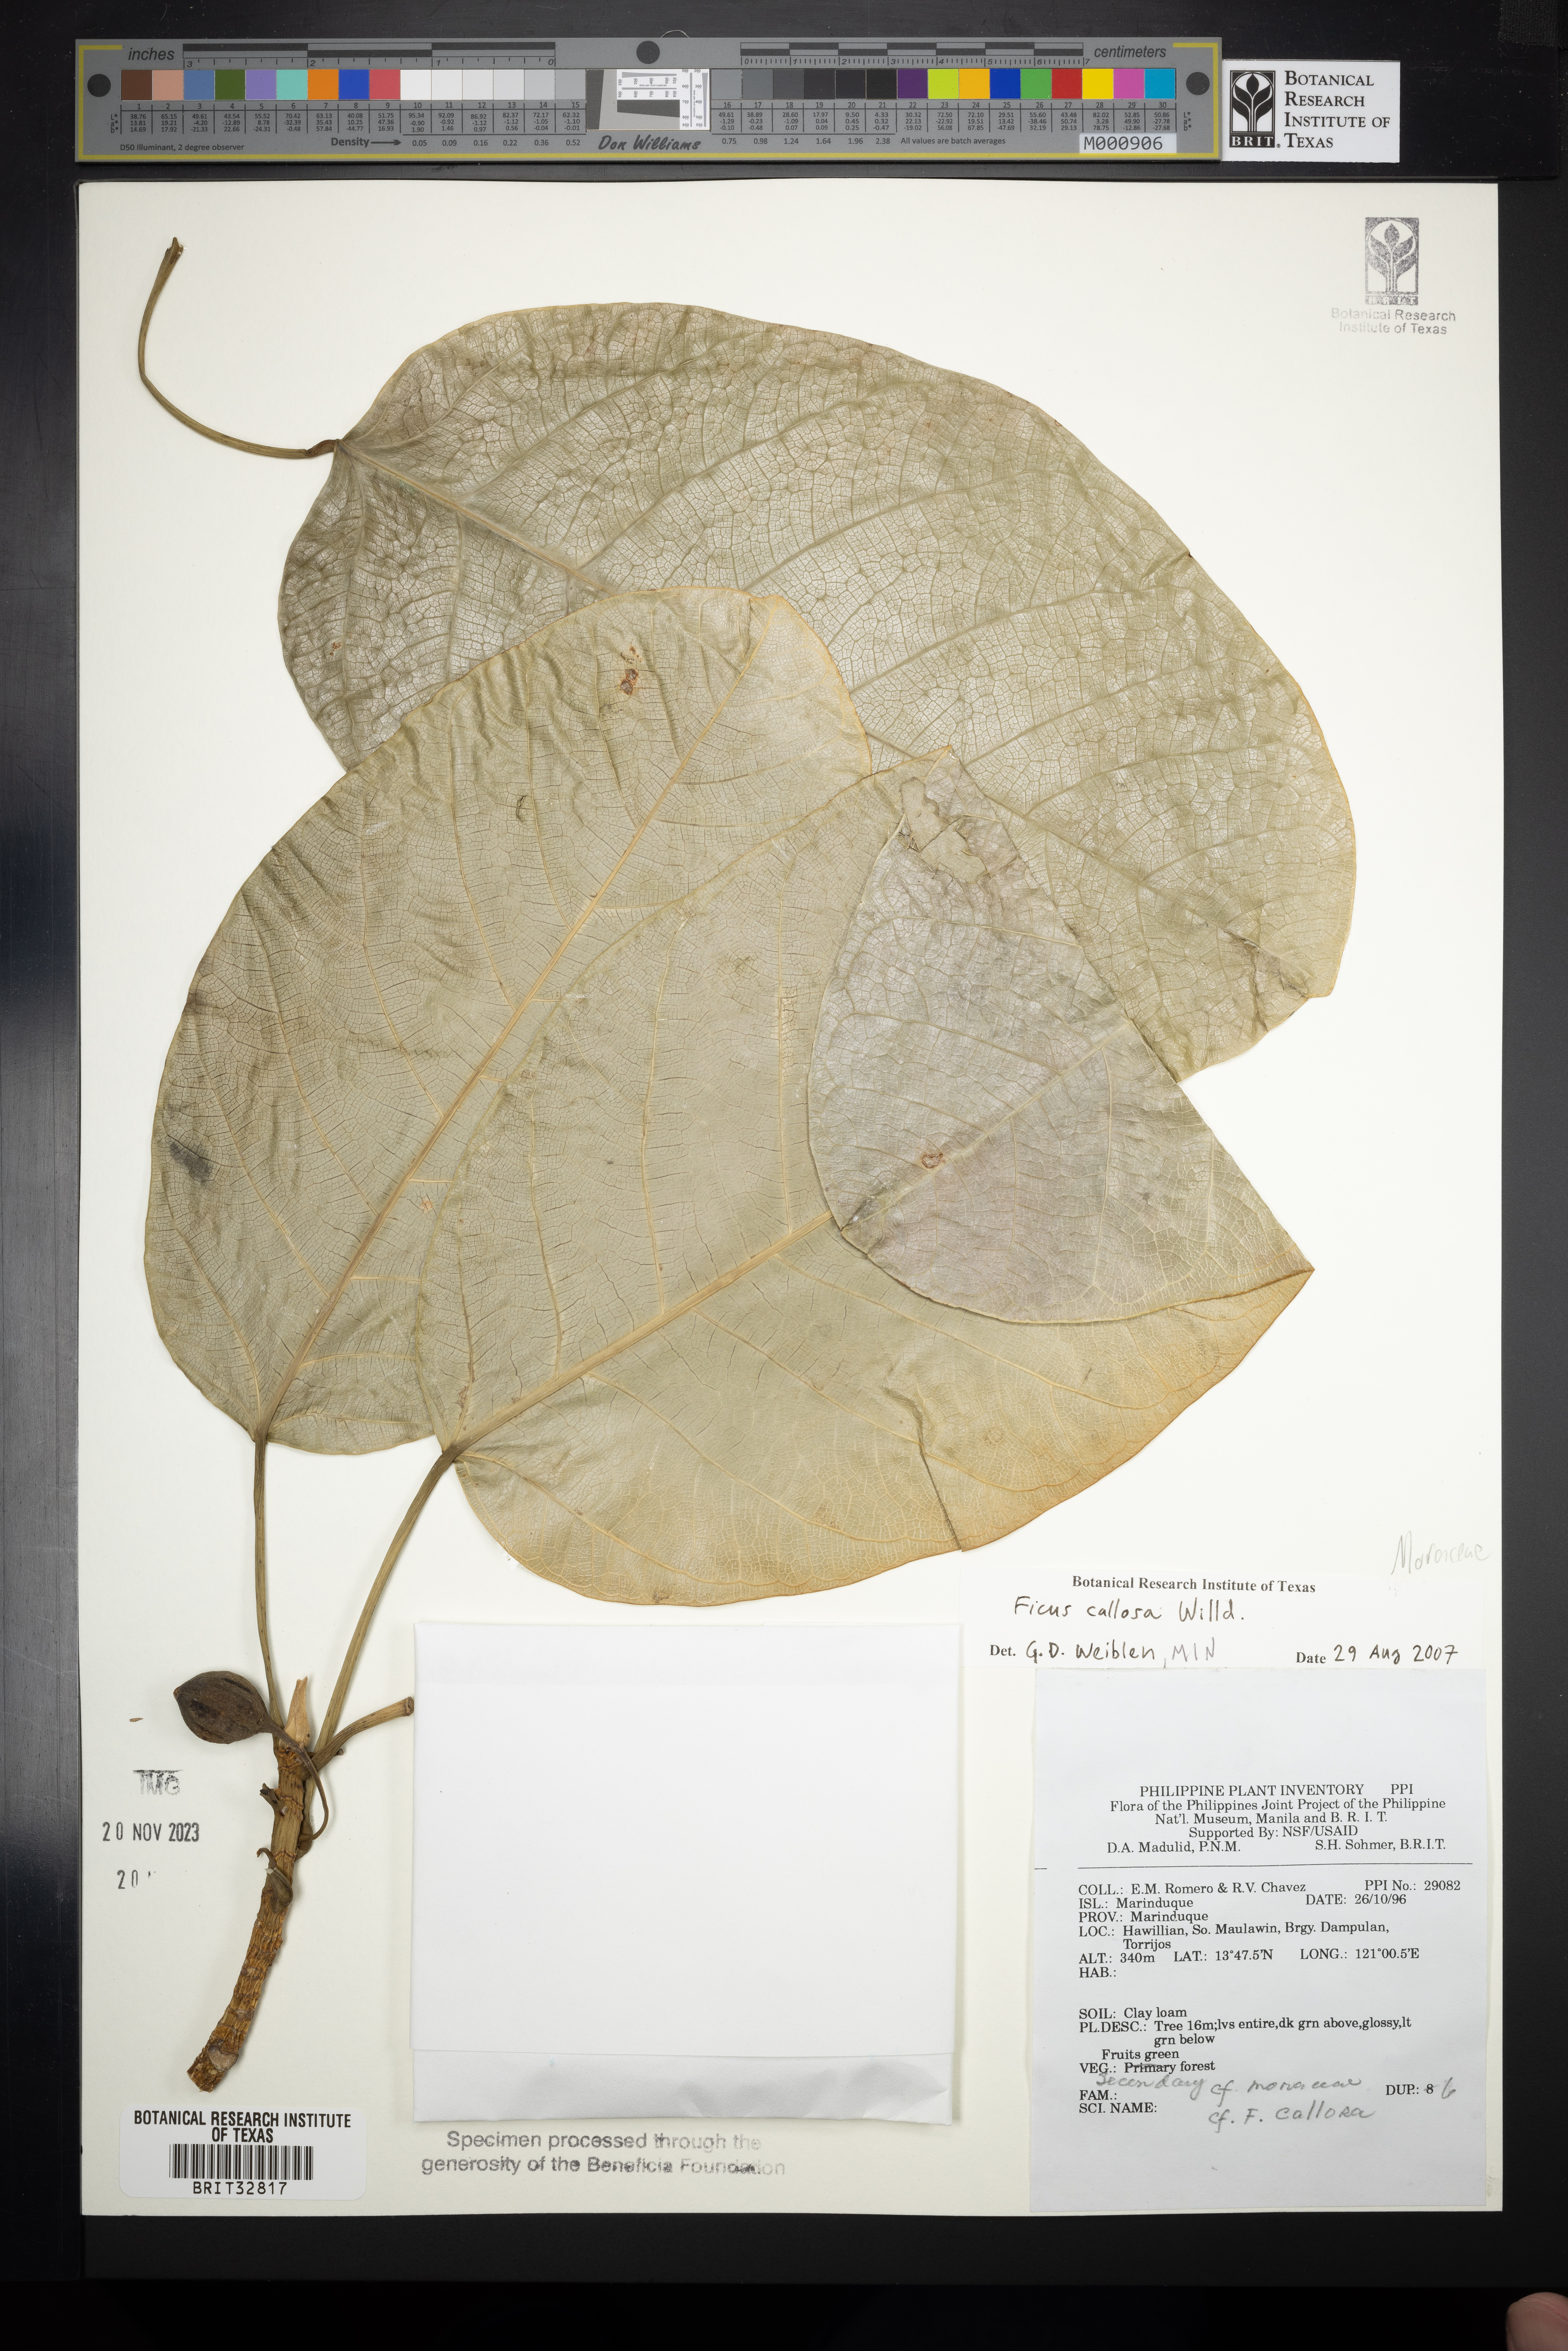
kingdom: Plantae
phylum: Tracheophyta
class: Magnoliopsida
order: Rosales
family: Moraceae
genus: Ficus
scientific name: Ficus callosa
